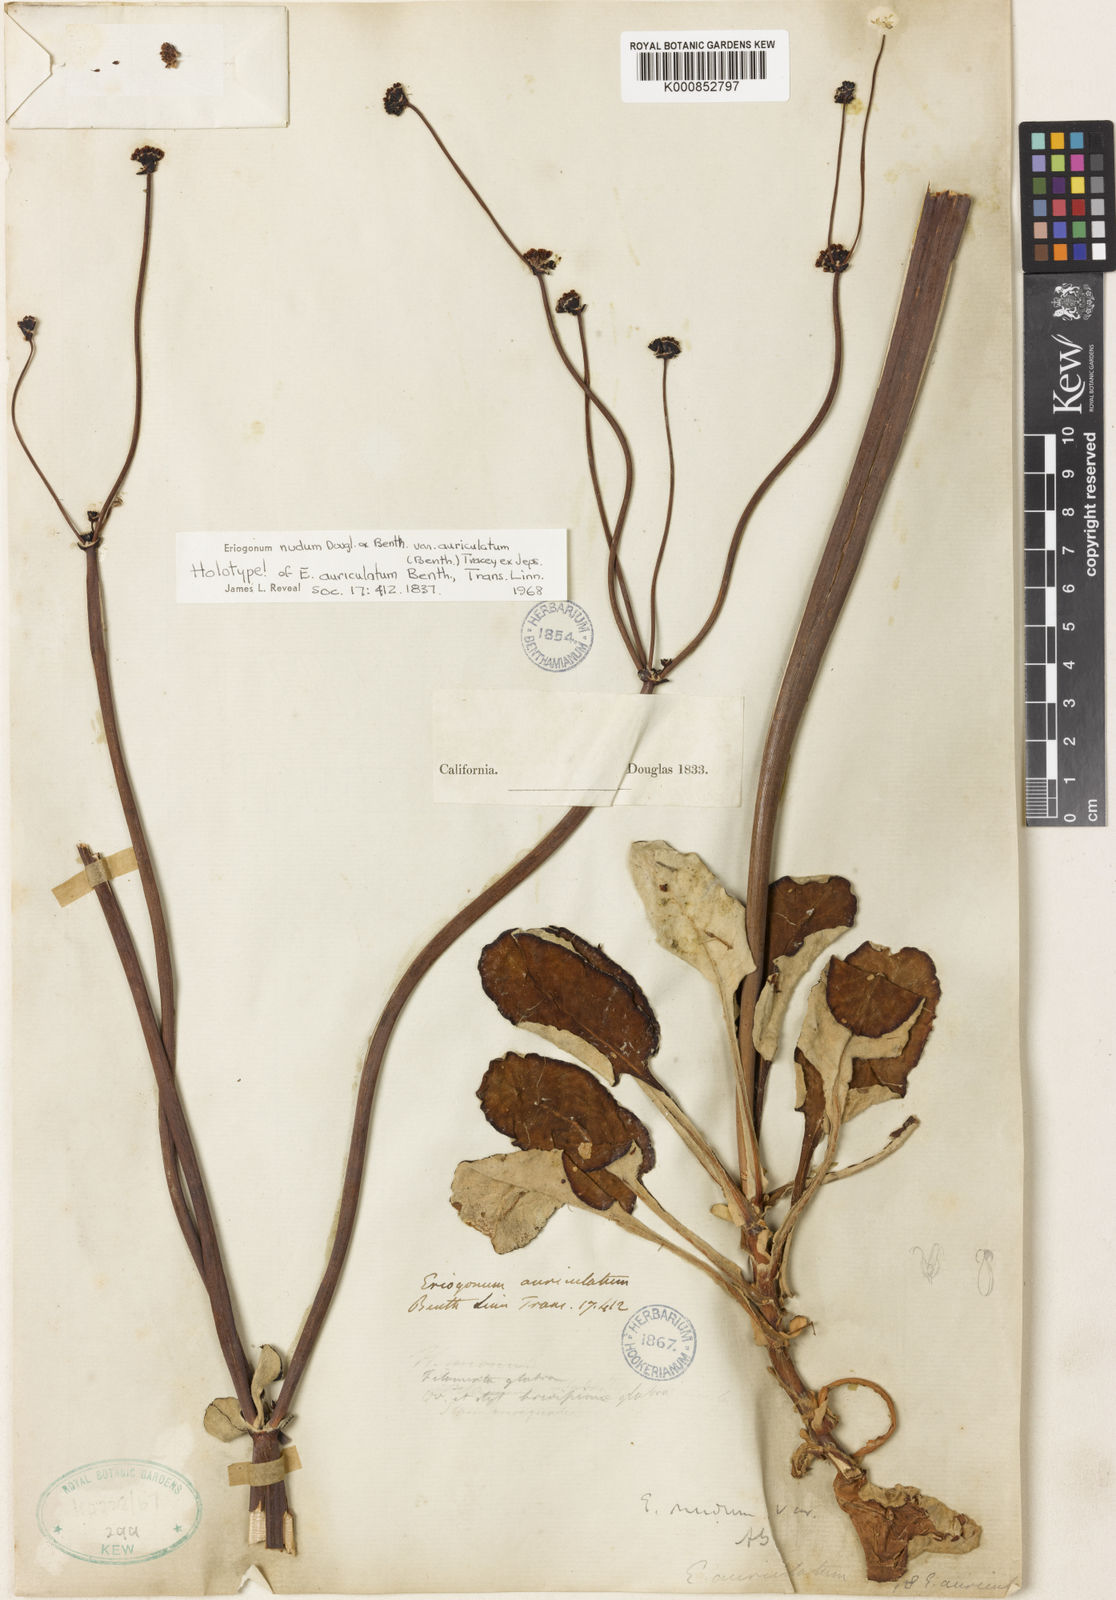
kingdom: Plantae
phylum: Tracheophyta
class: Magnoliopsida
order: Caryophyllales
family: Polygonaceae
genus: Eriogonum
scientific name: Eriogonum nudum
